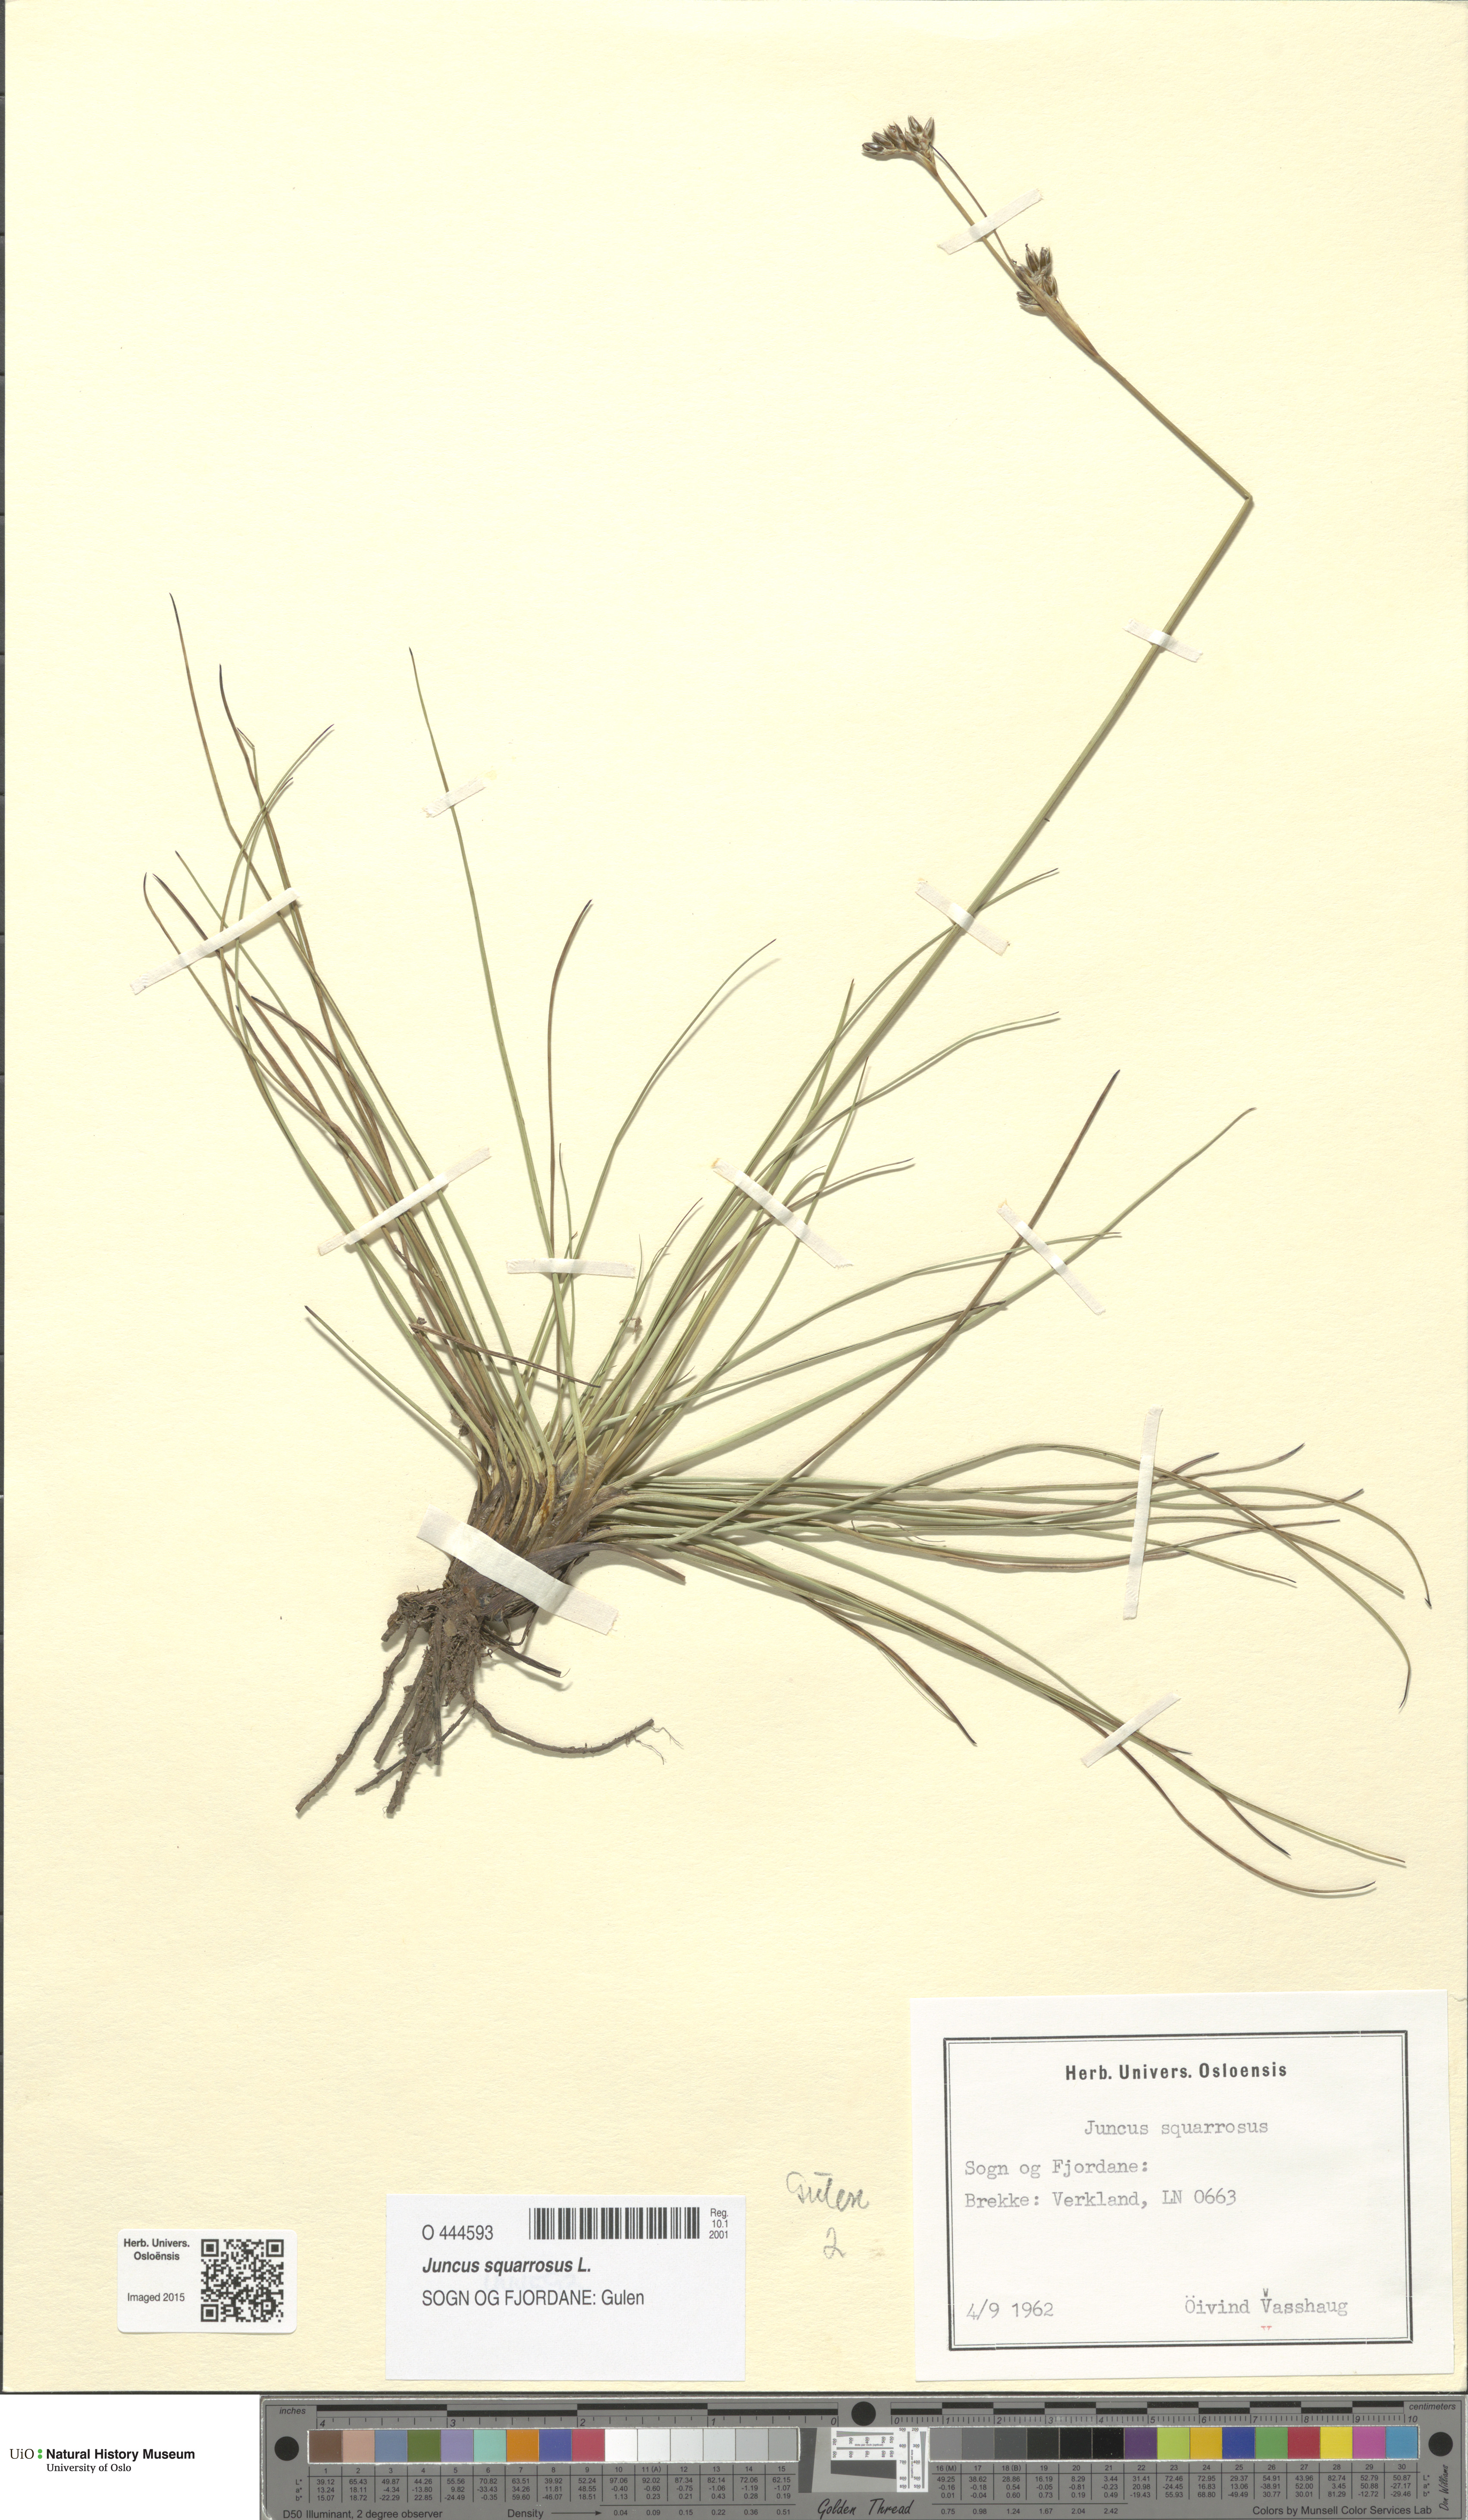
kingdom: Plantae
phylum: Tracheophyta
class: Liliopsida
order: Poales
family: Juncaceae
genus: Juncus
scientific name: Juncus squarrosus
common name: Heath rush
